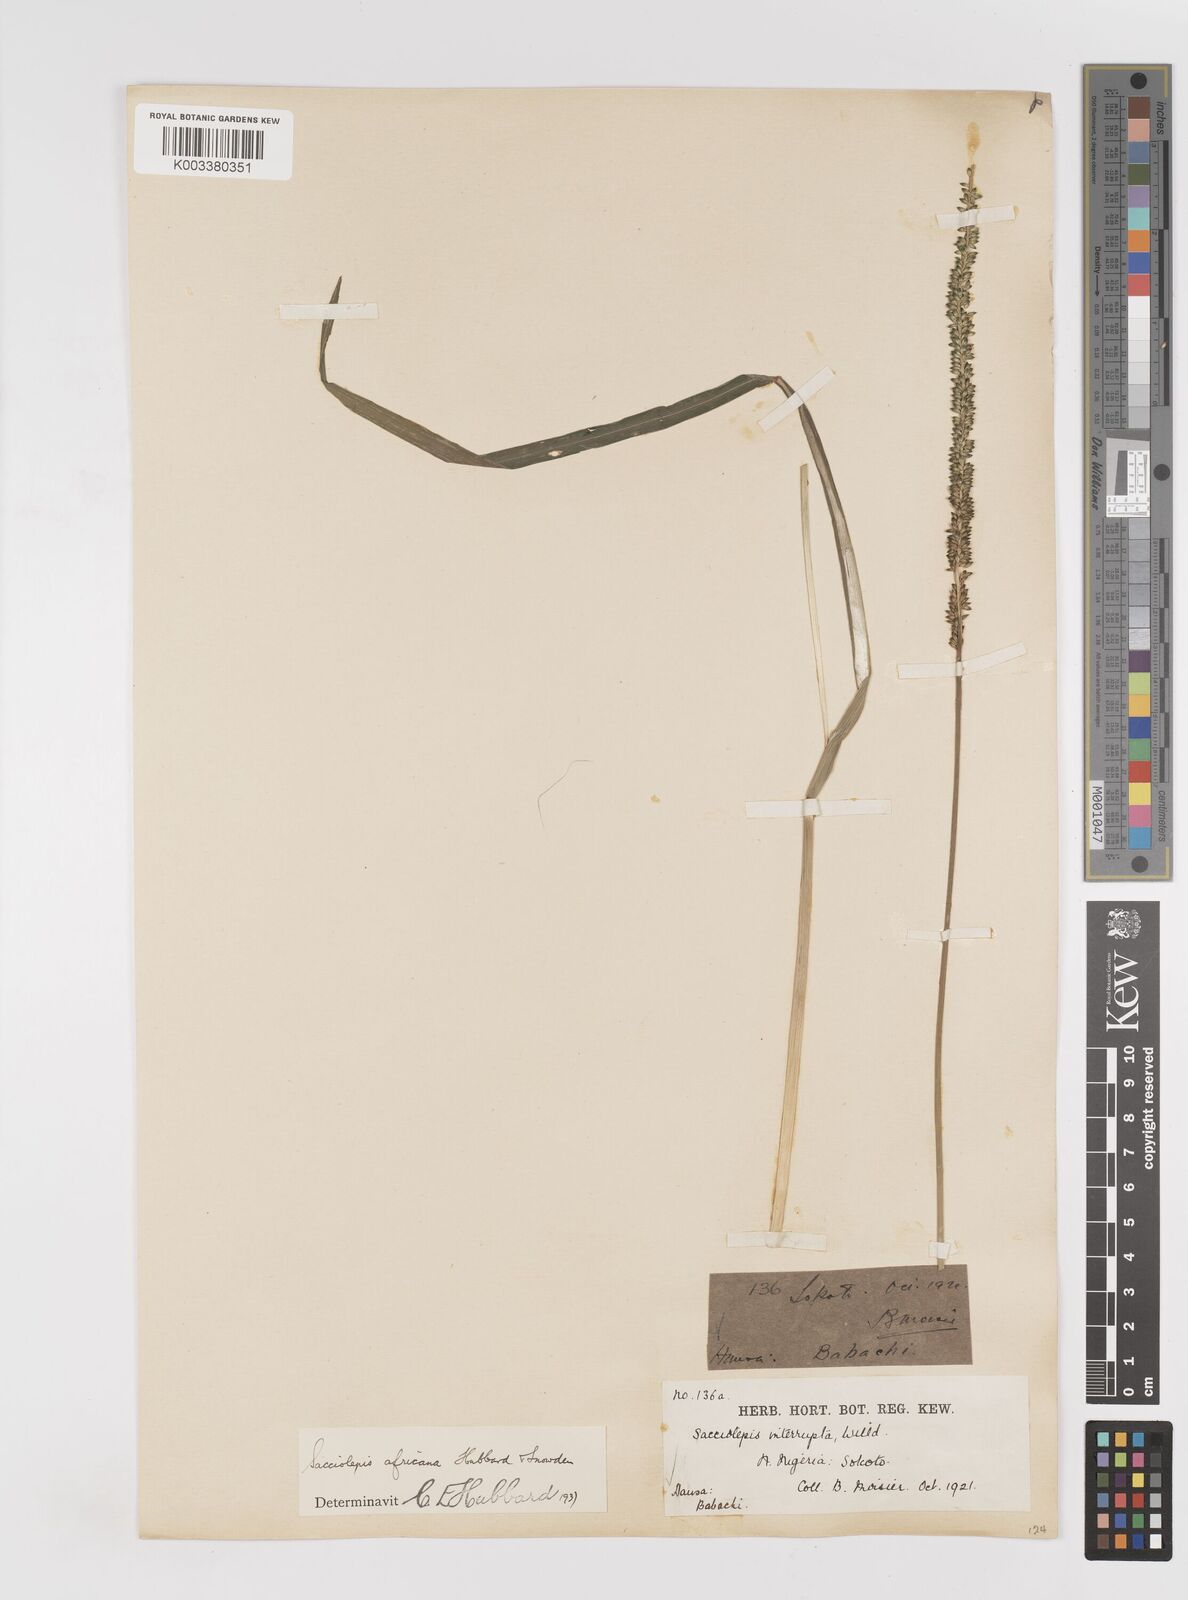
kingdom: Plantae
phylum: Tracheophyta
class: Liliopsida
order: Poales
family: Poaceae
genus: Sacciolepis
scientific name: Sacciolepis africana
